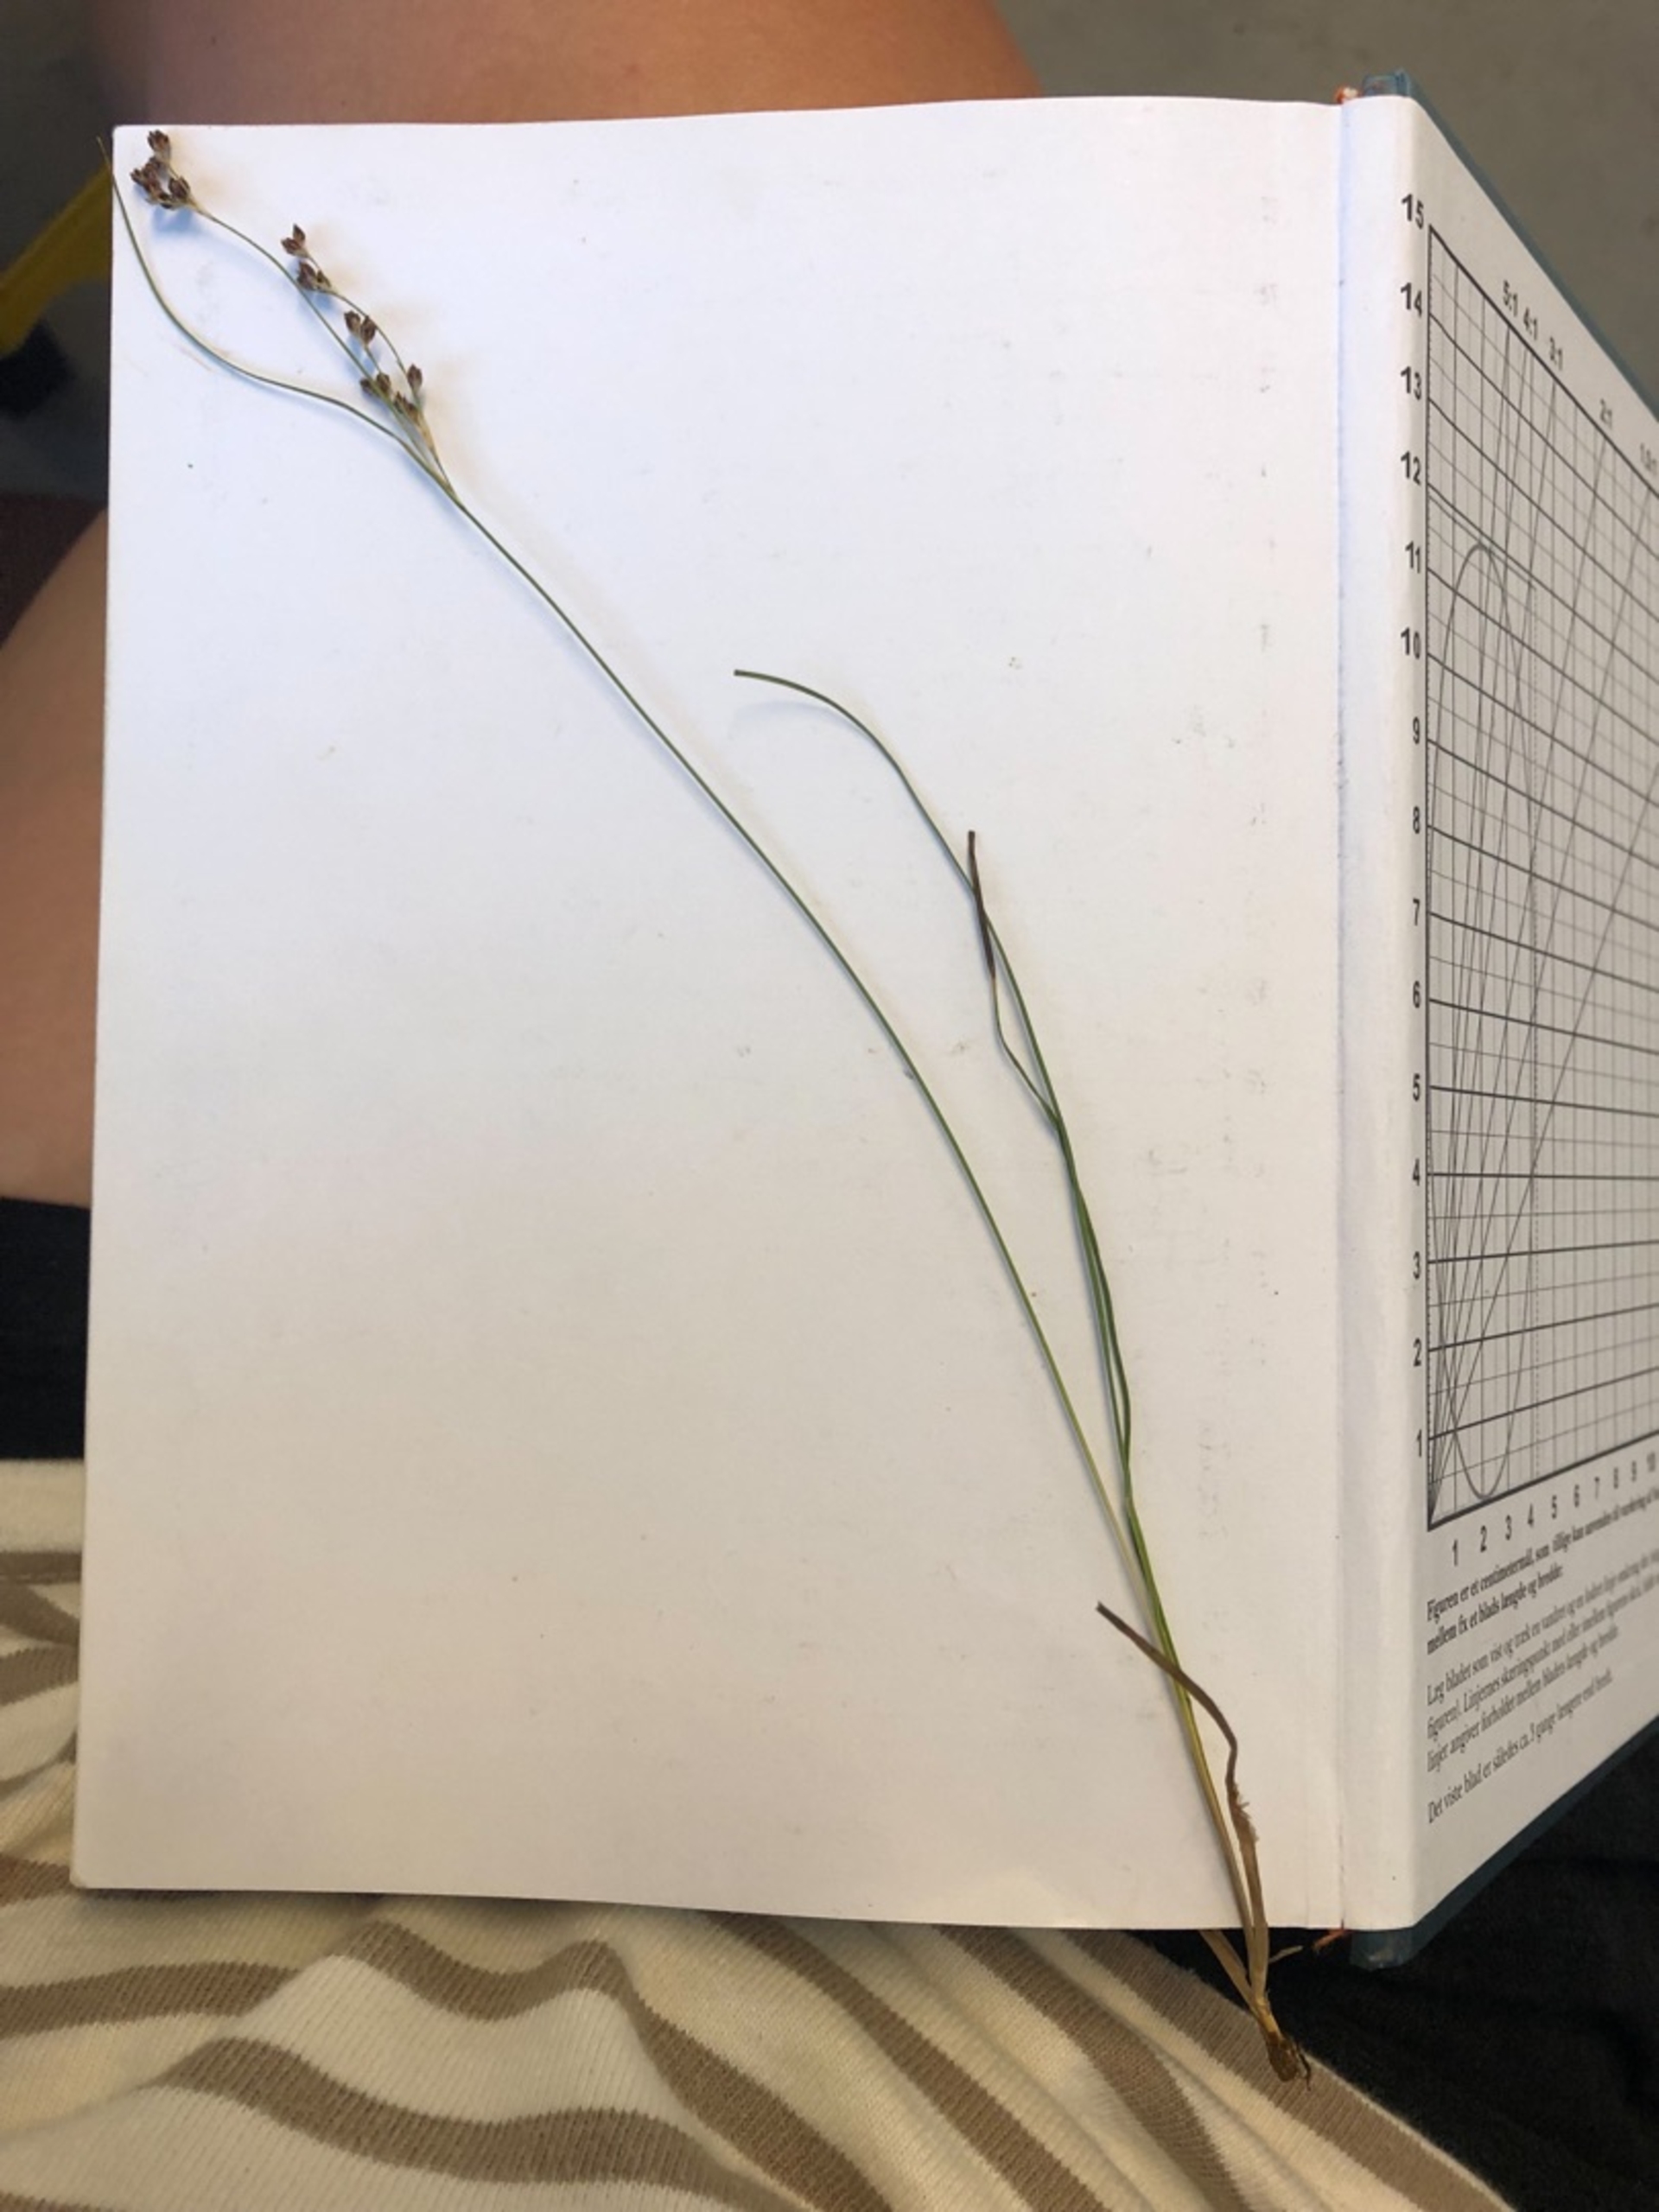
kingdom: Plantae
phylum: Tracheophyta
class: Liliopsida
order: Poales
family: Juncaceae
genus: Juncus
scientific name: Juncus gerardi
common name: Harril
